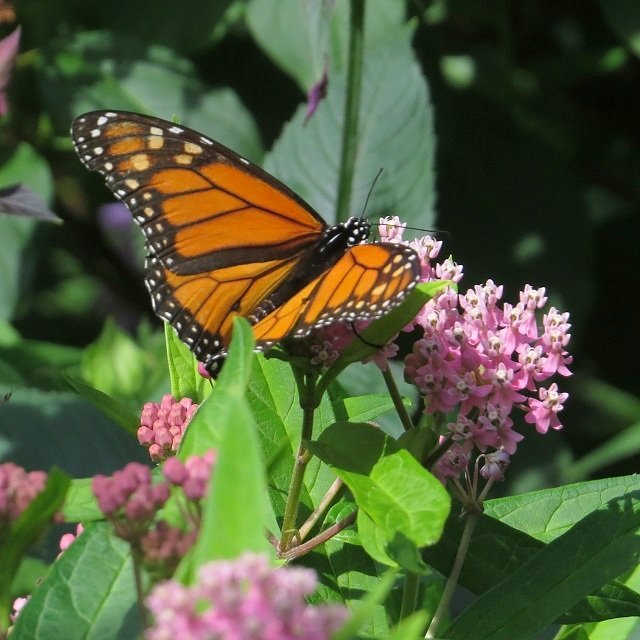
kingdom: Animalia
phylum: Arthropoda
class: Insecta
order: Lepidoptera
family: Nymphalidae
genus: Danaus
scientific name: Danaus plexippus
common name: Monarch
